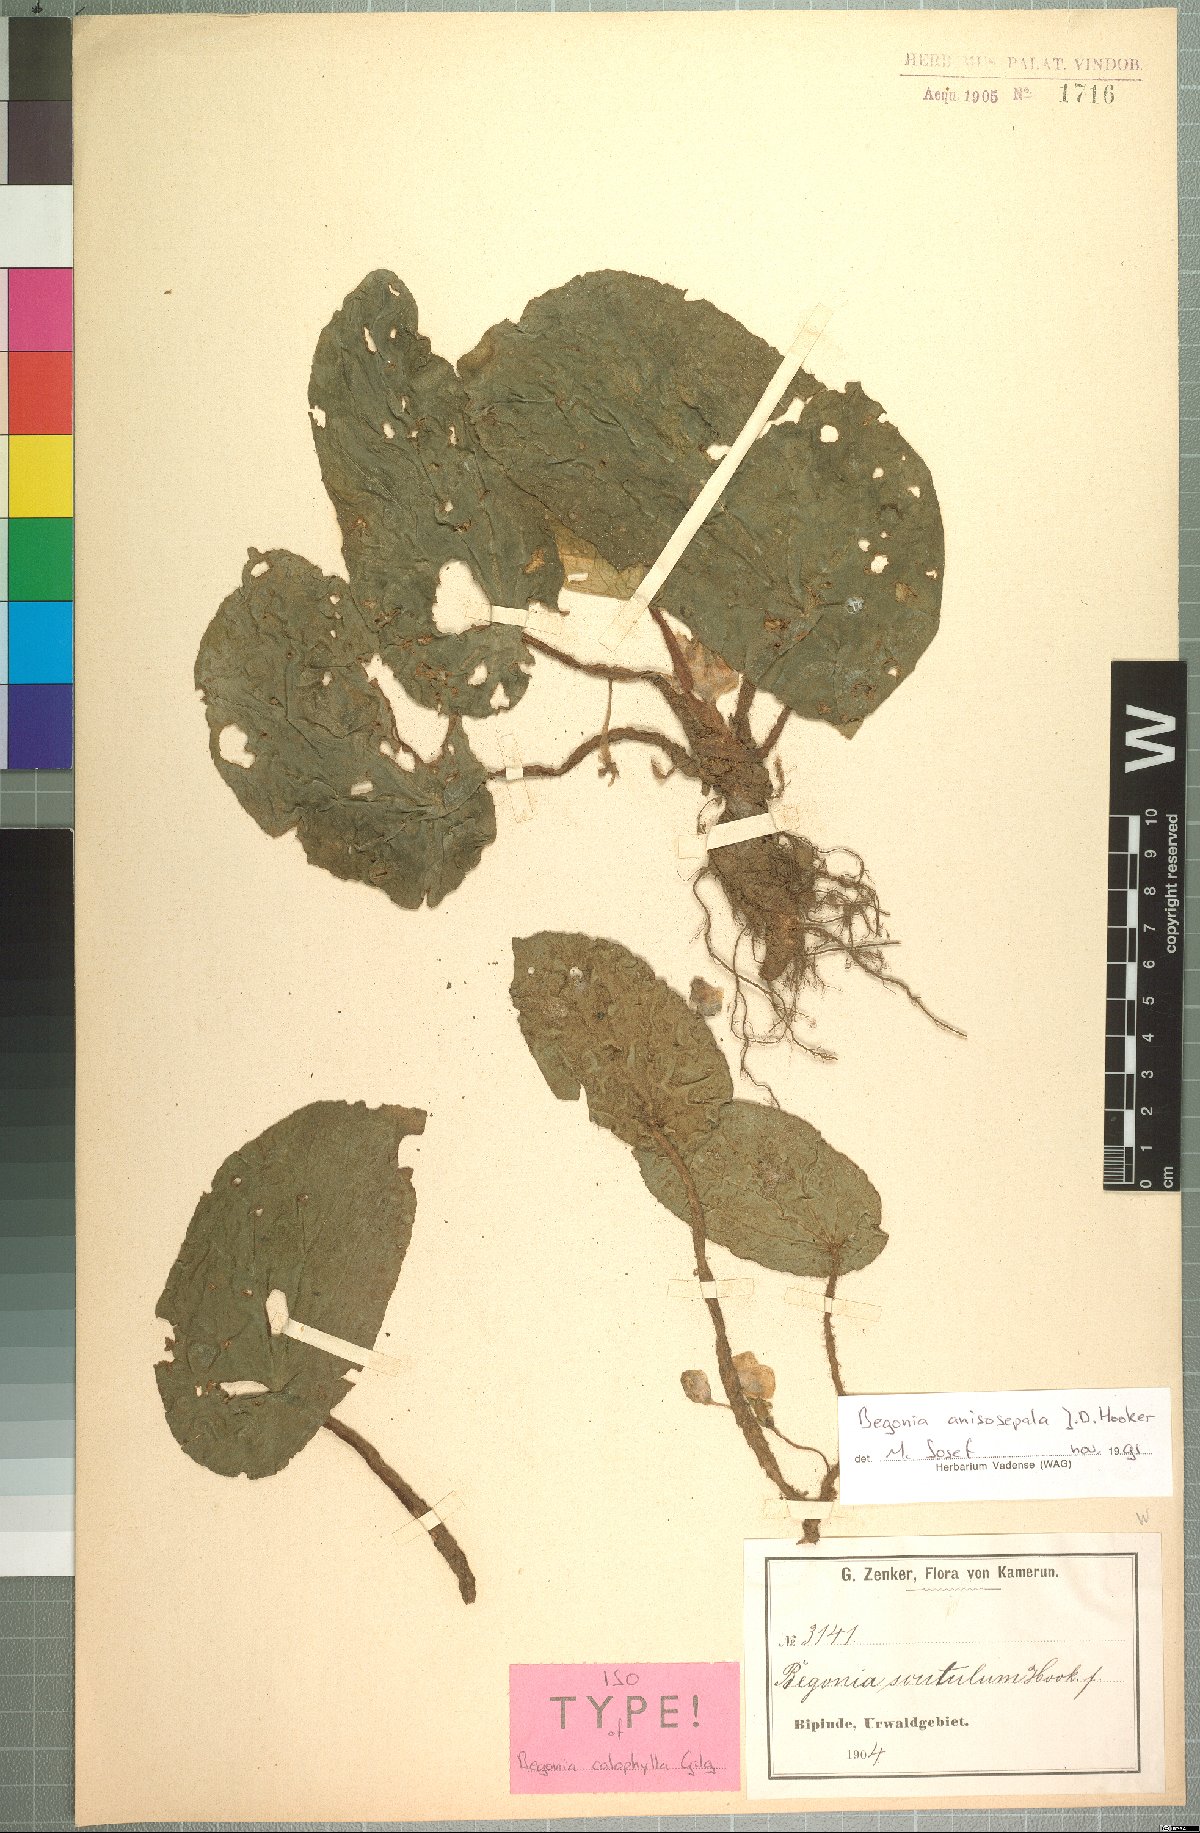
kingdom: Plantae
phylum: Tracheophyta
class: Magnoliopsida
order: Cucurbitales
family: Begoniaceae
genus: Begonia
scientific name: Begonia anisosepala
